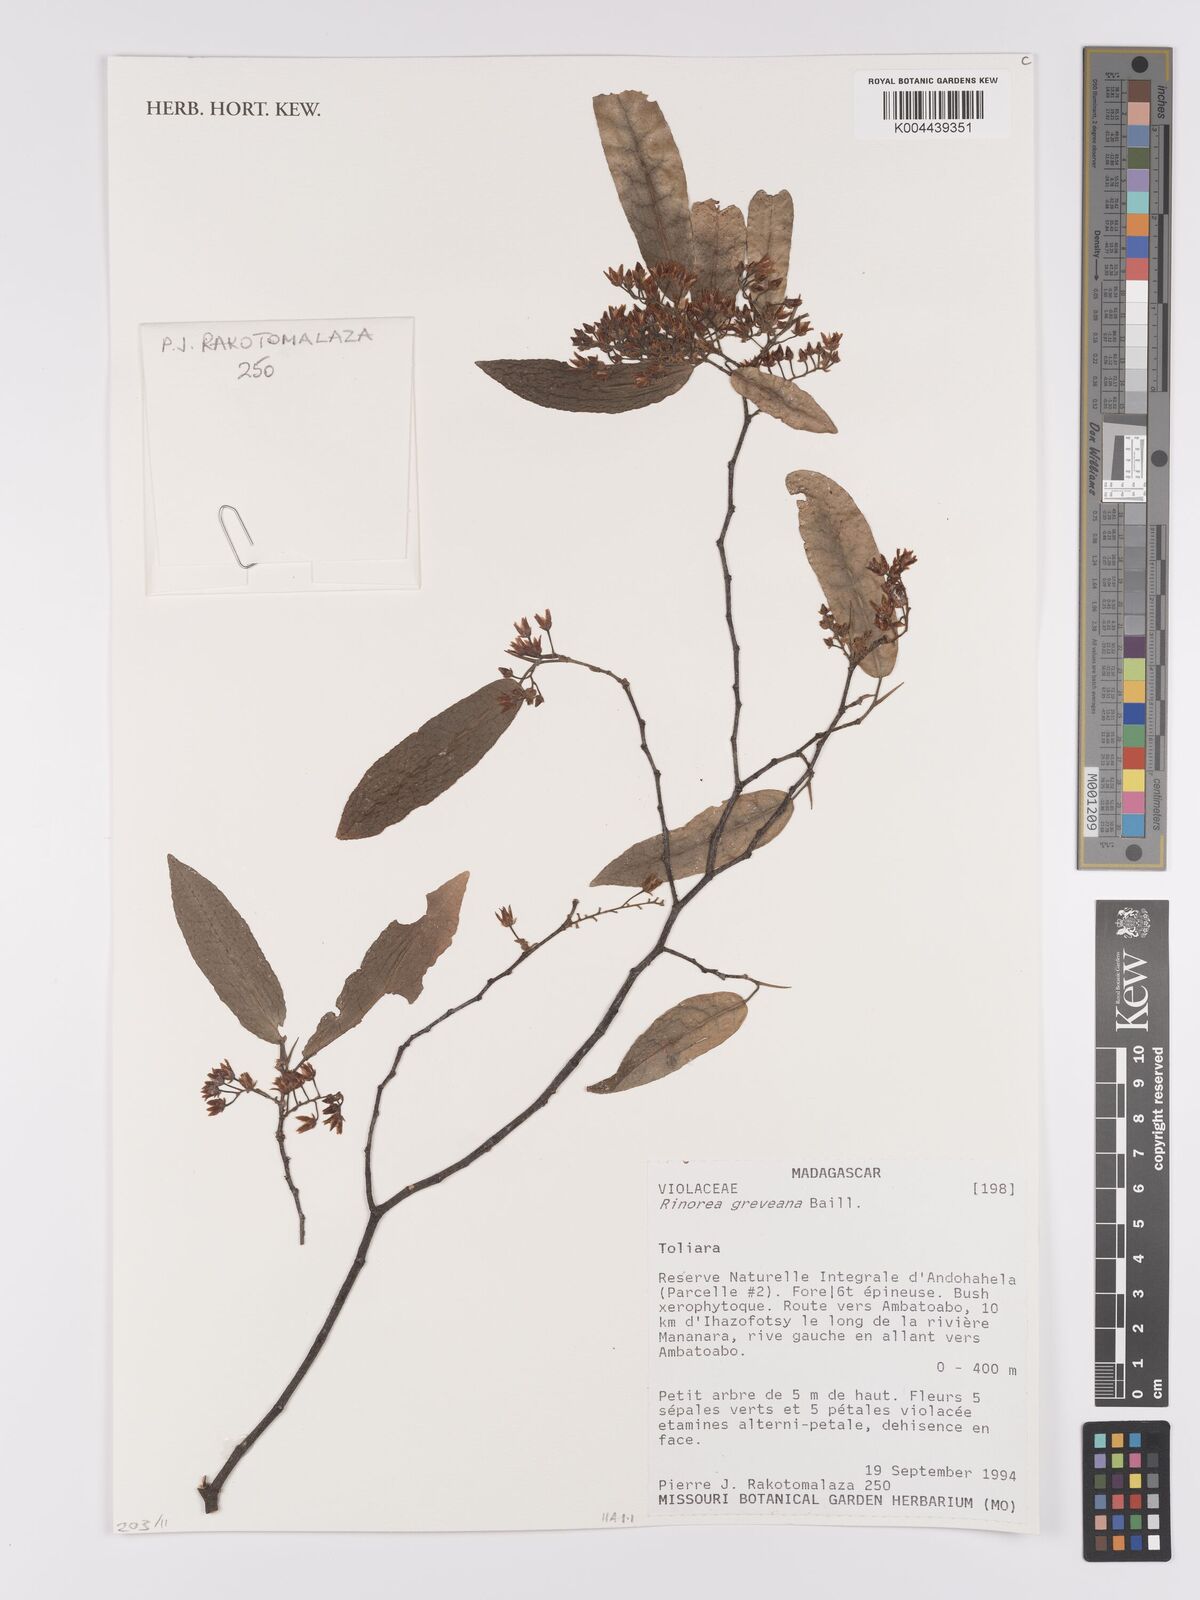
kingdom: Plantae
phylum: Tracheophyta
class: Magnoliopsida
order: Malpighiales
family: Violaceae
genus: Rinorea
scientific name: Rinorea greveana
